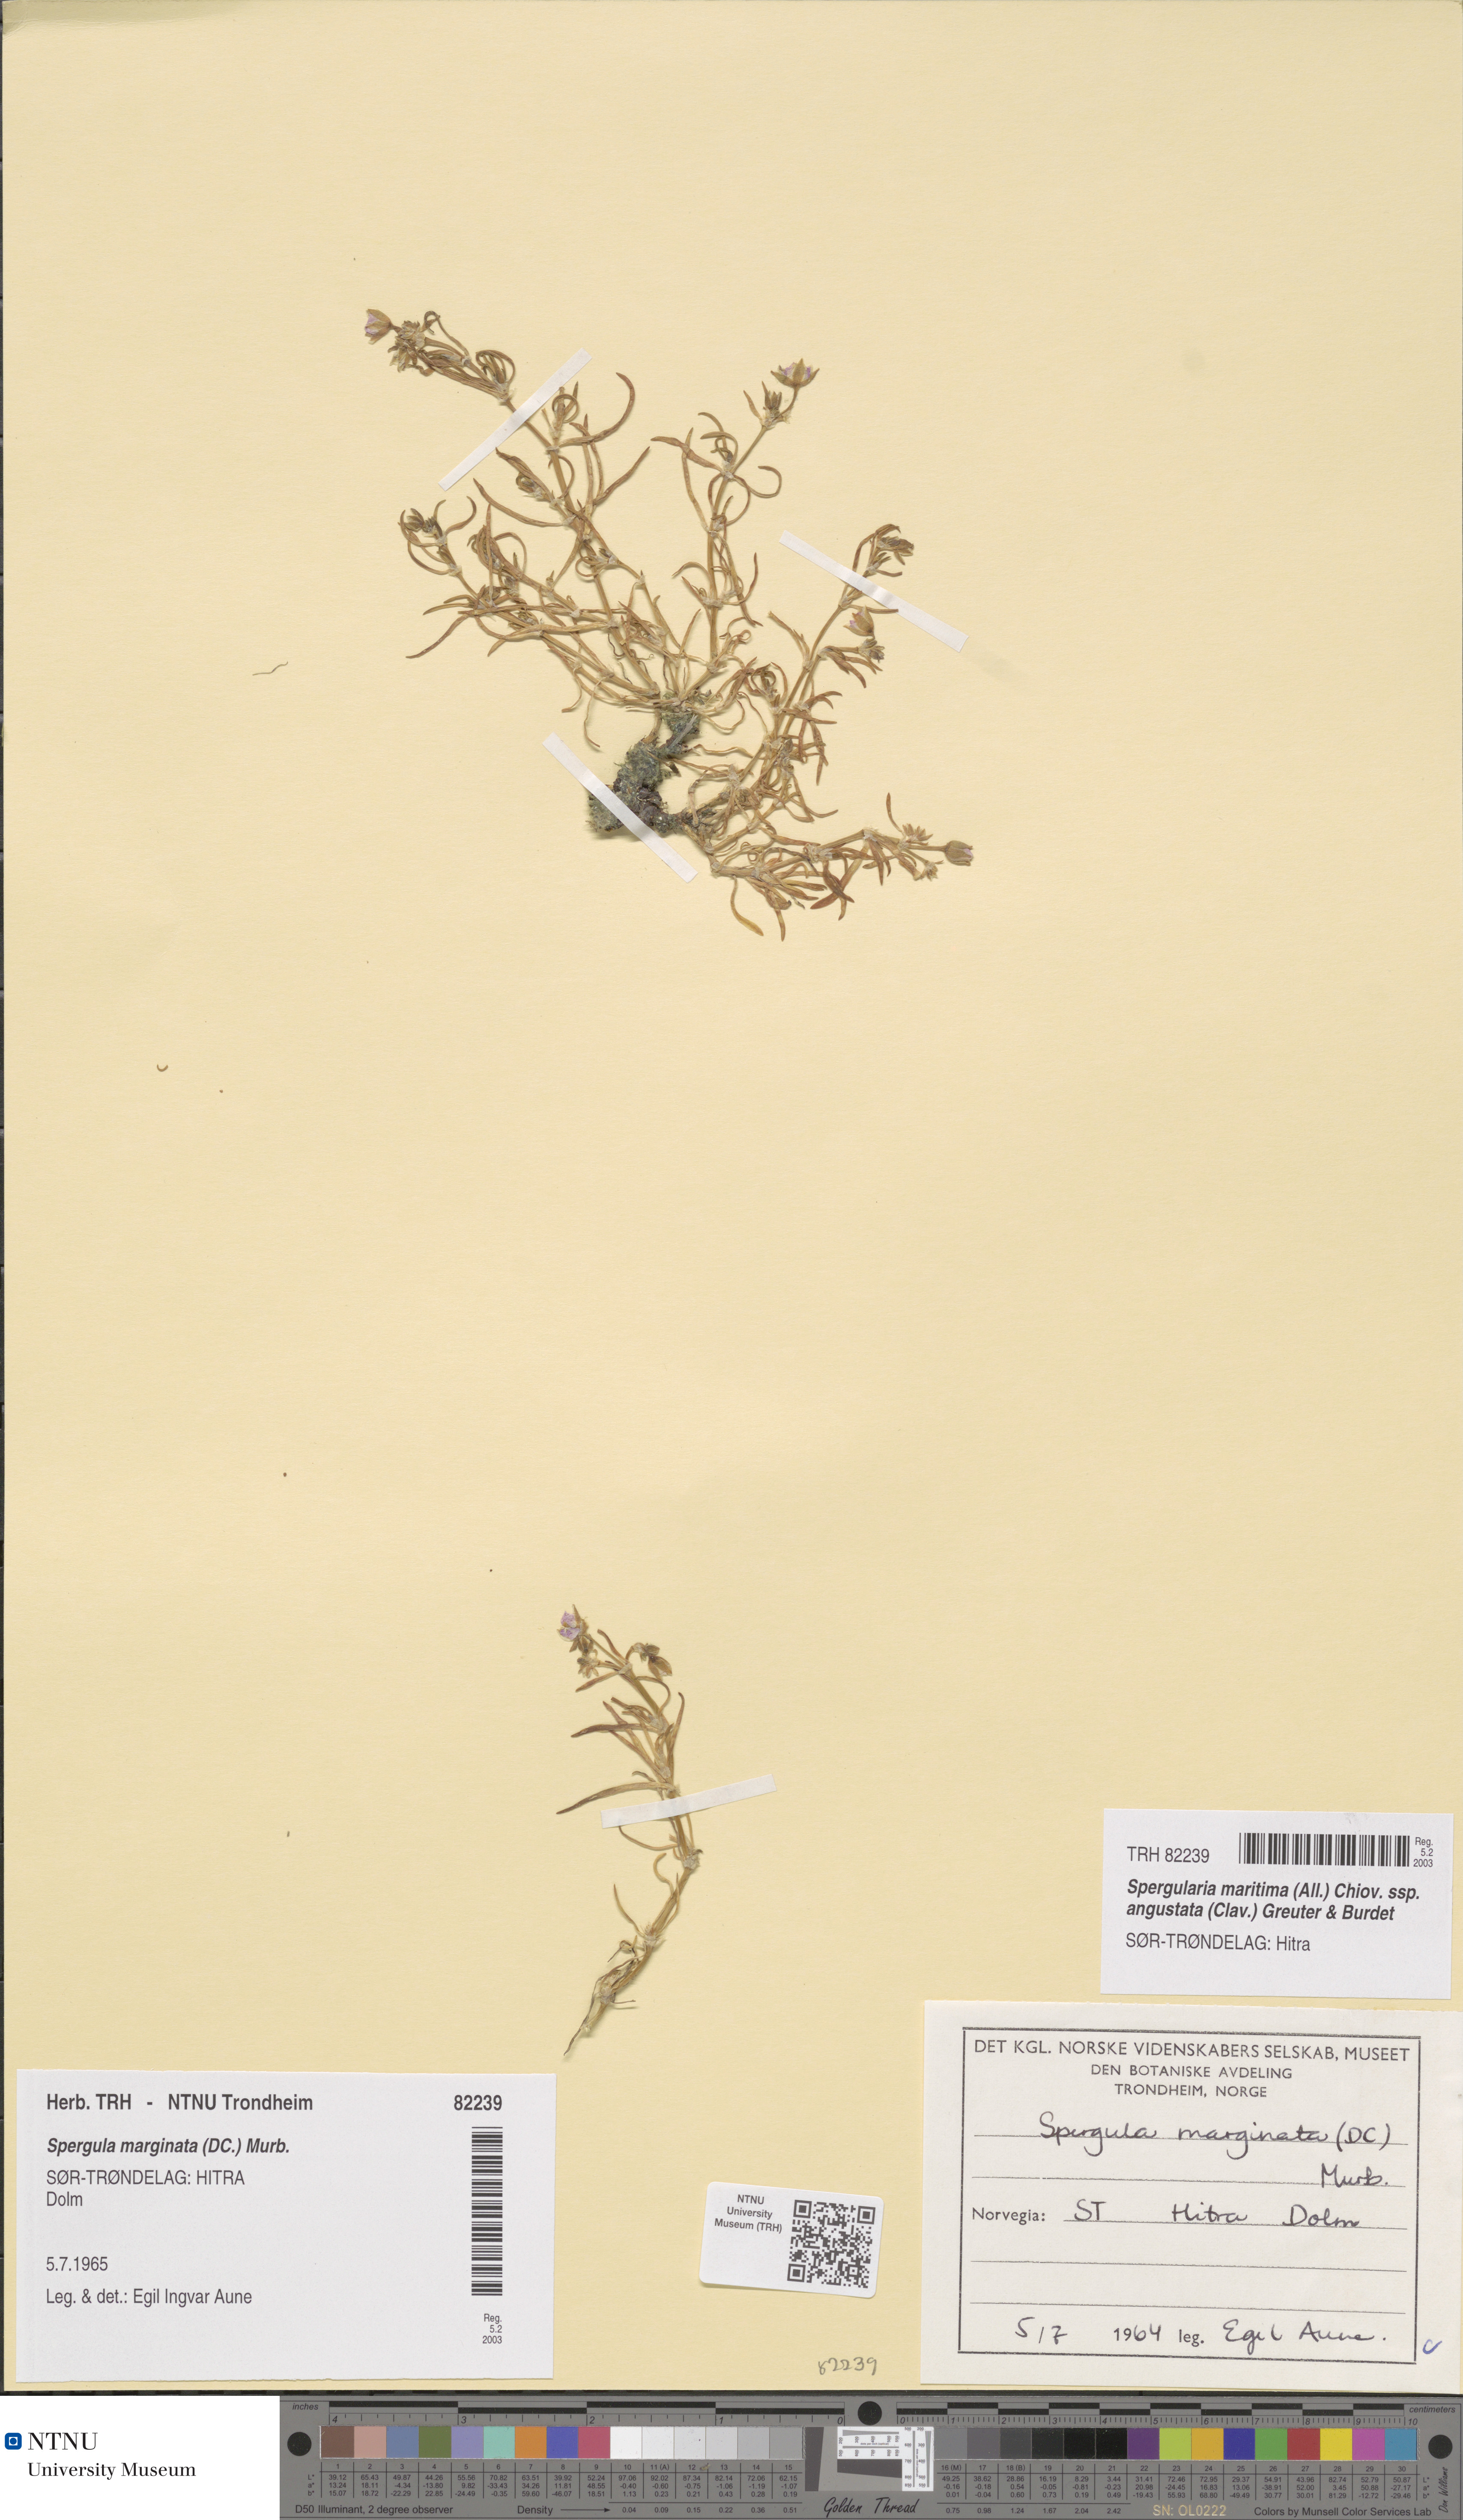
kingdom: Plantae
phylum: Tracheophyta
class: Magnoliopsida
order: Caryophyllales
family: Caryophyllaceae
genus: Spergularia
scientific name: Spergularia media
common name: Greater sea-spurrey
